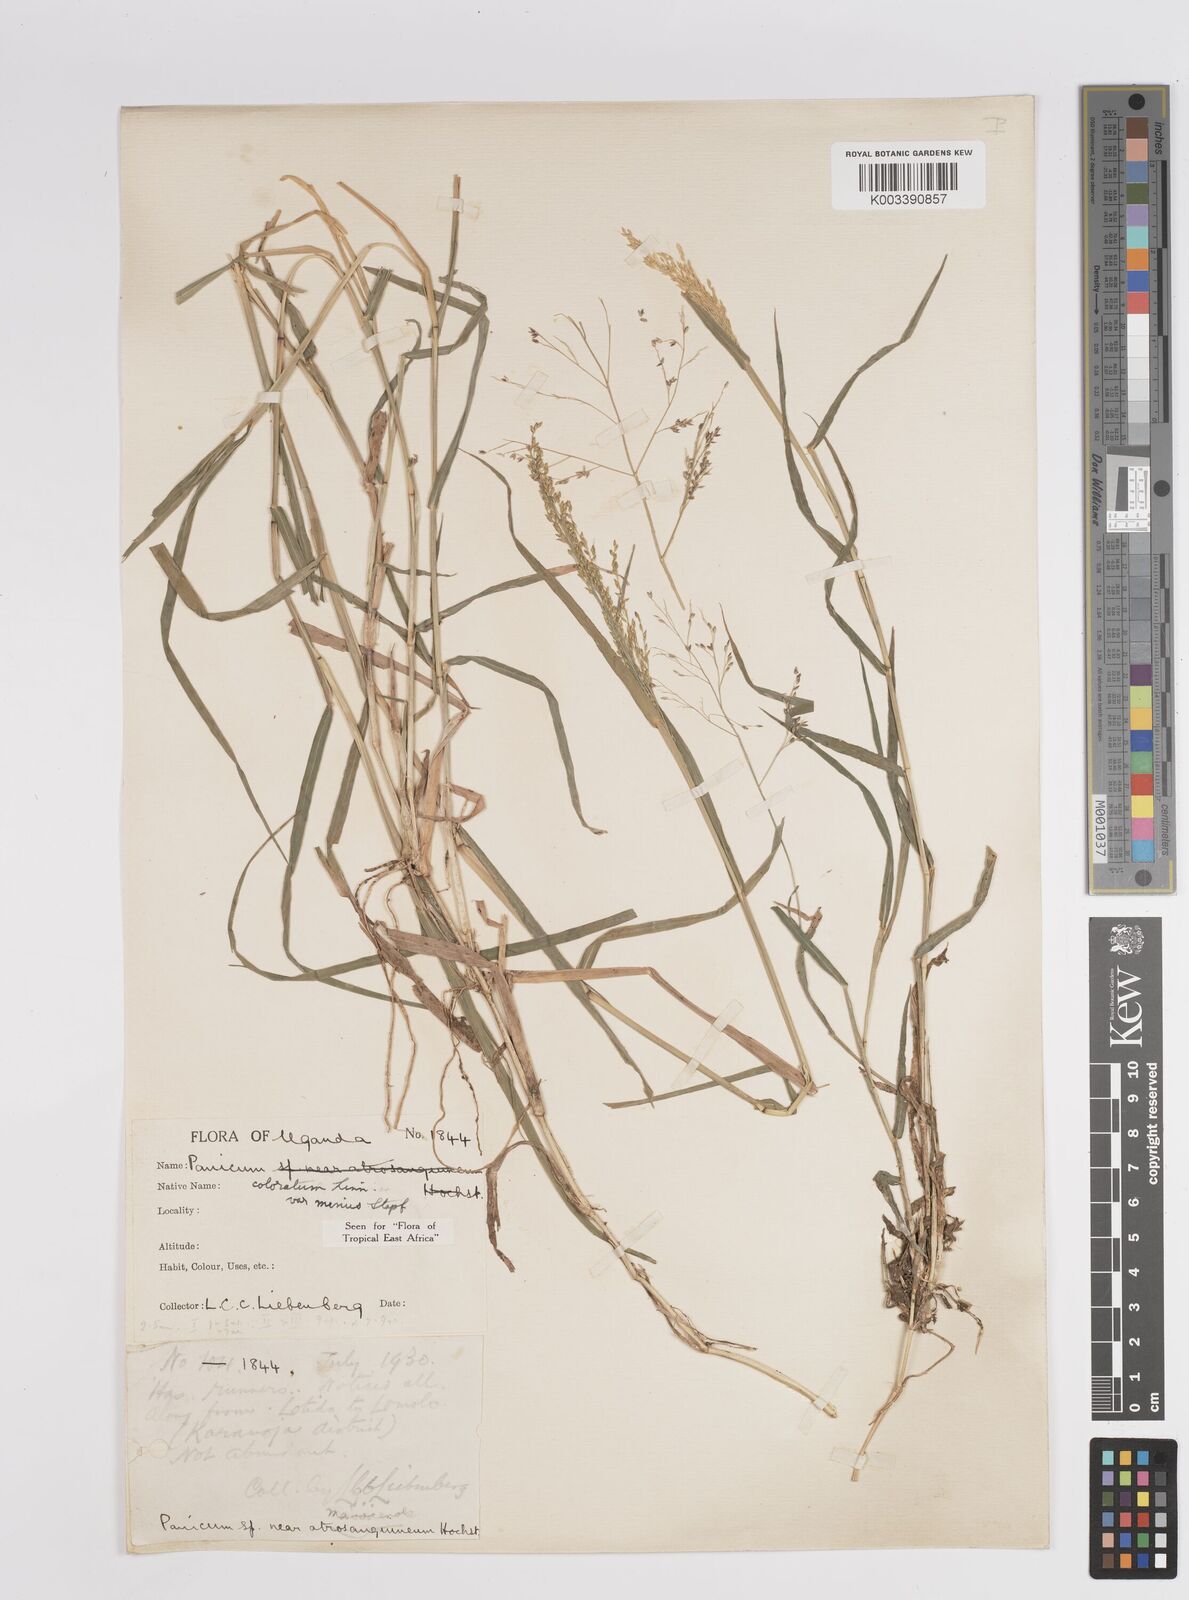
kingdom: Plantae
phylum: Tracheophyta
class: Liliopsida
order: Poales
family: Poaceae
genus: Panicum
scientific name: Panicum coloratum
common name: Kleingrass
